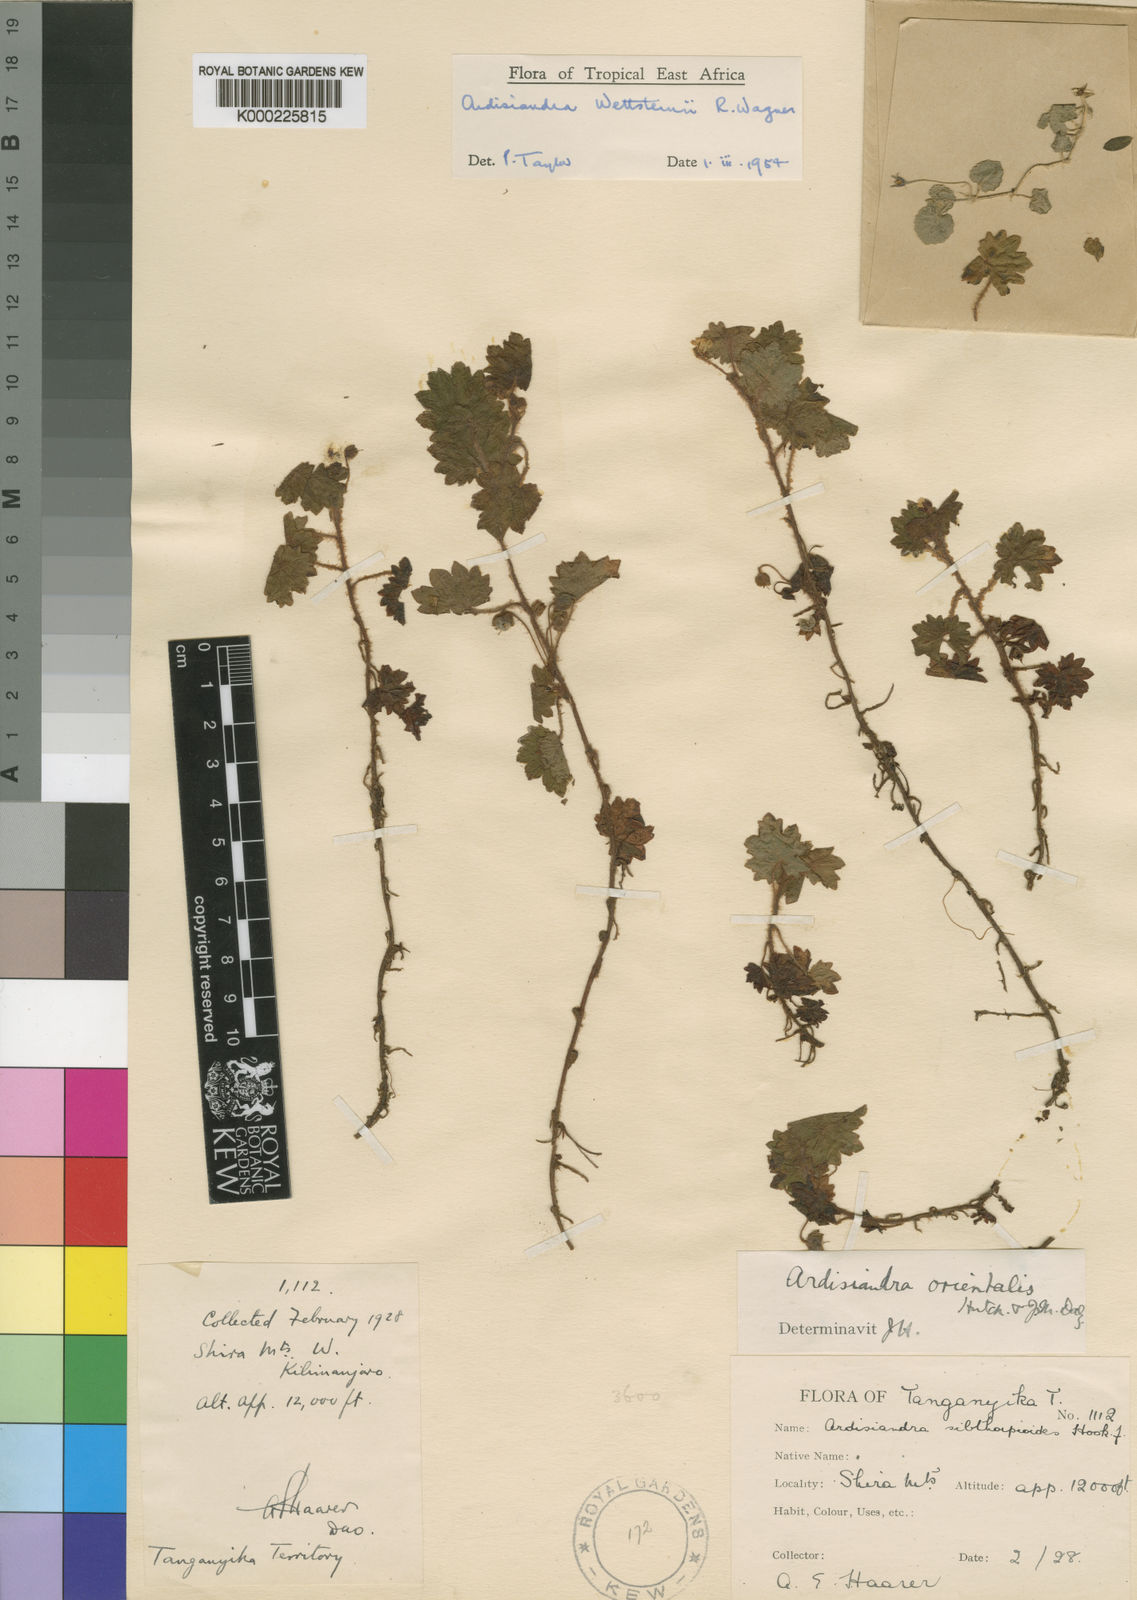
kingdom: Plantae
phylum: Tracheophyta
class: Magnoliopsida
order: Ericales
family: Primulaceae
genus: Ardisiandra
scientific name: Ardisiandra wettsteinii
